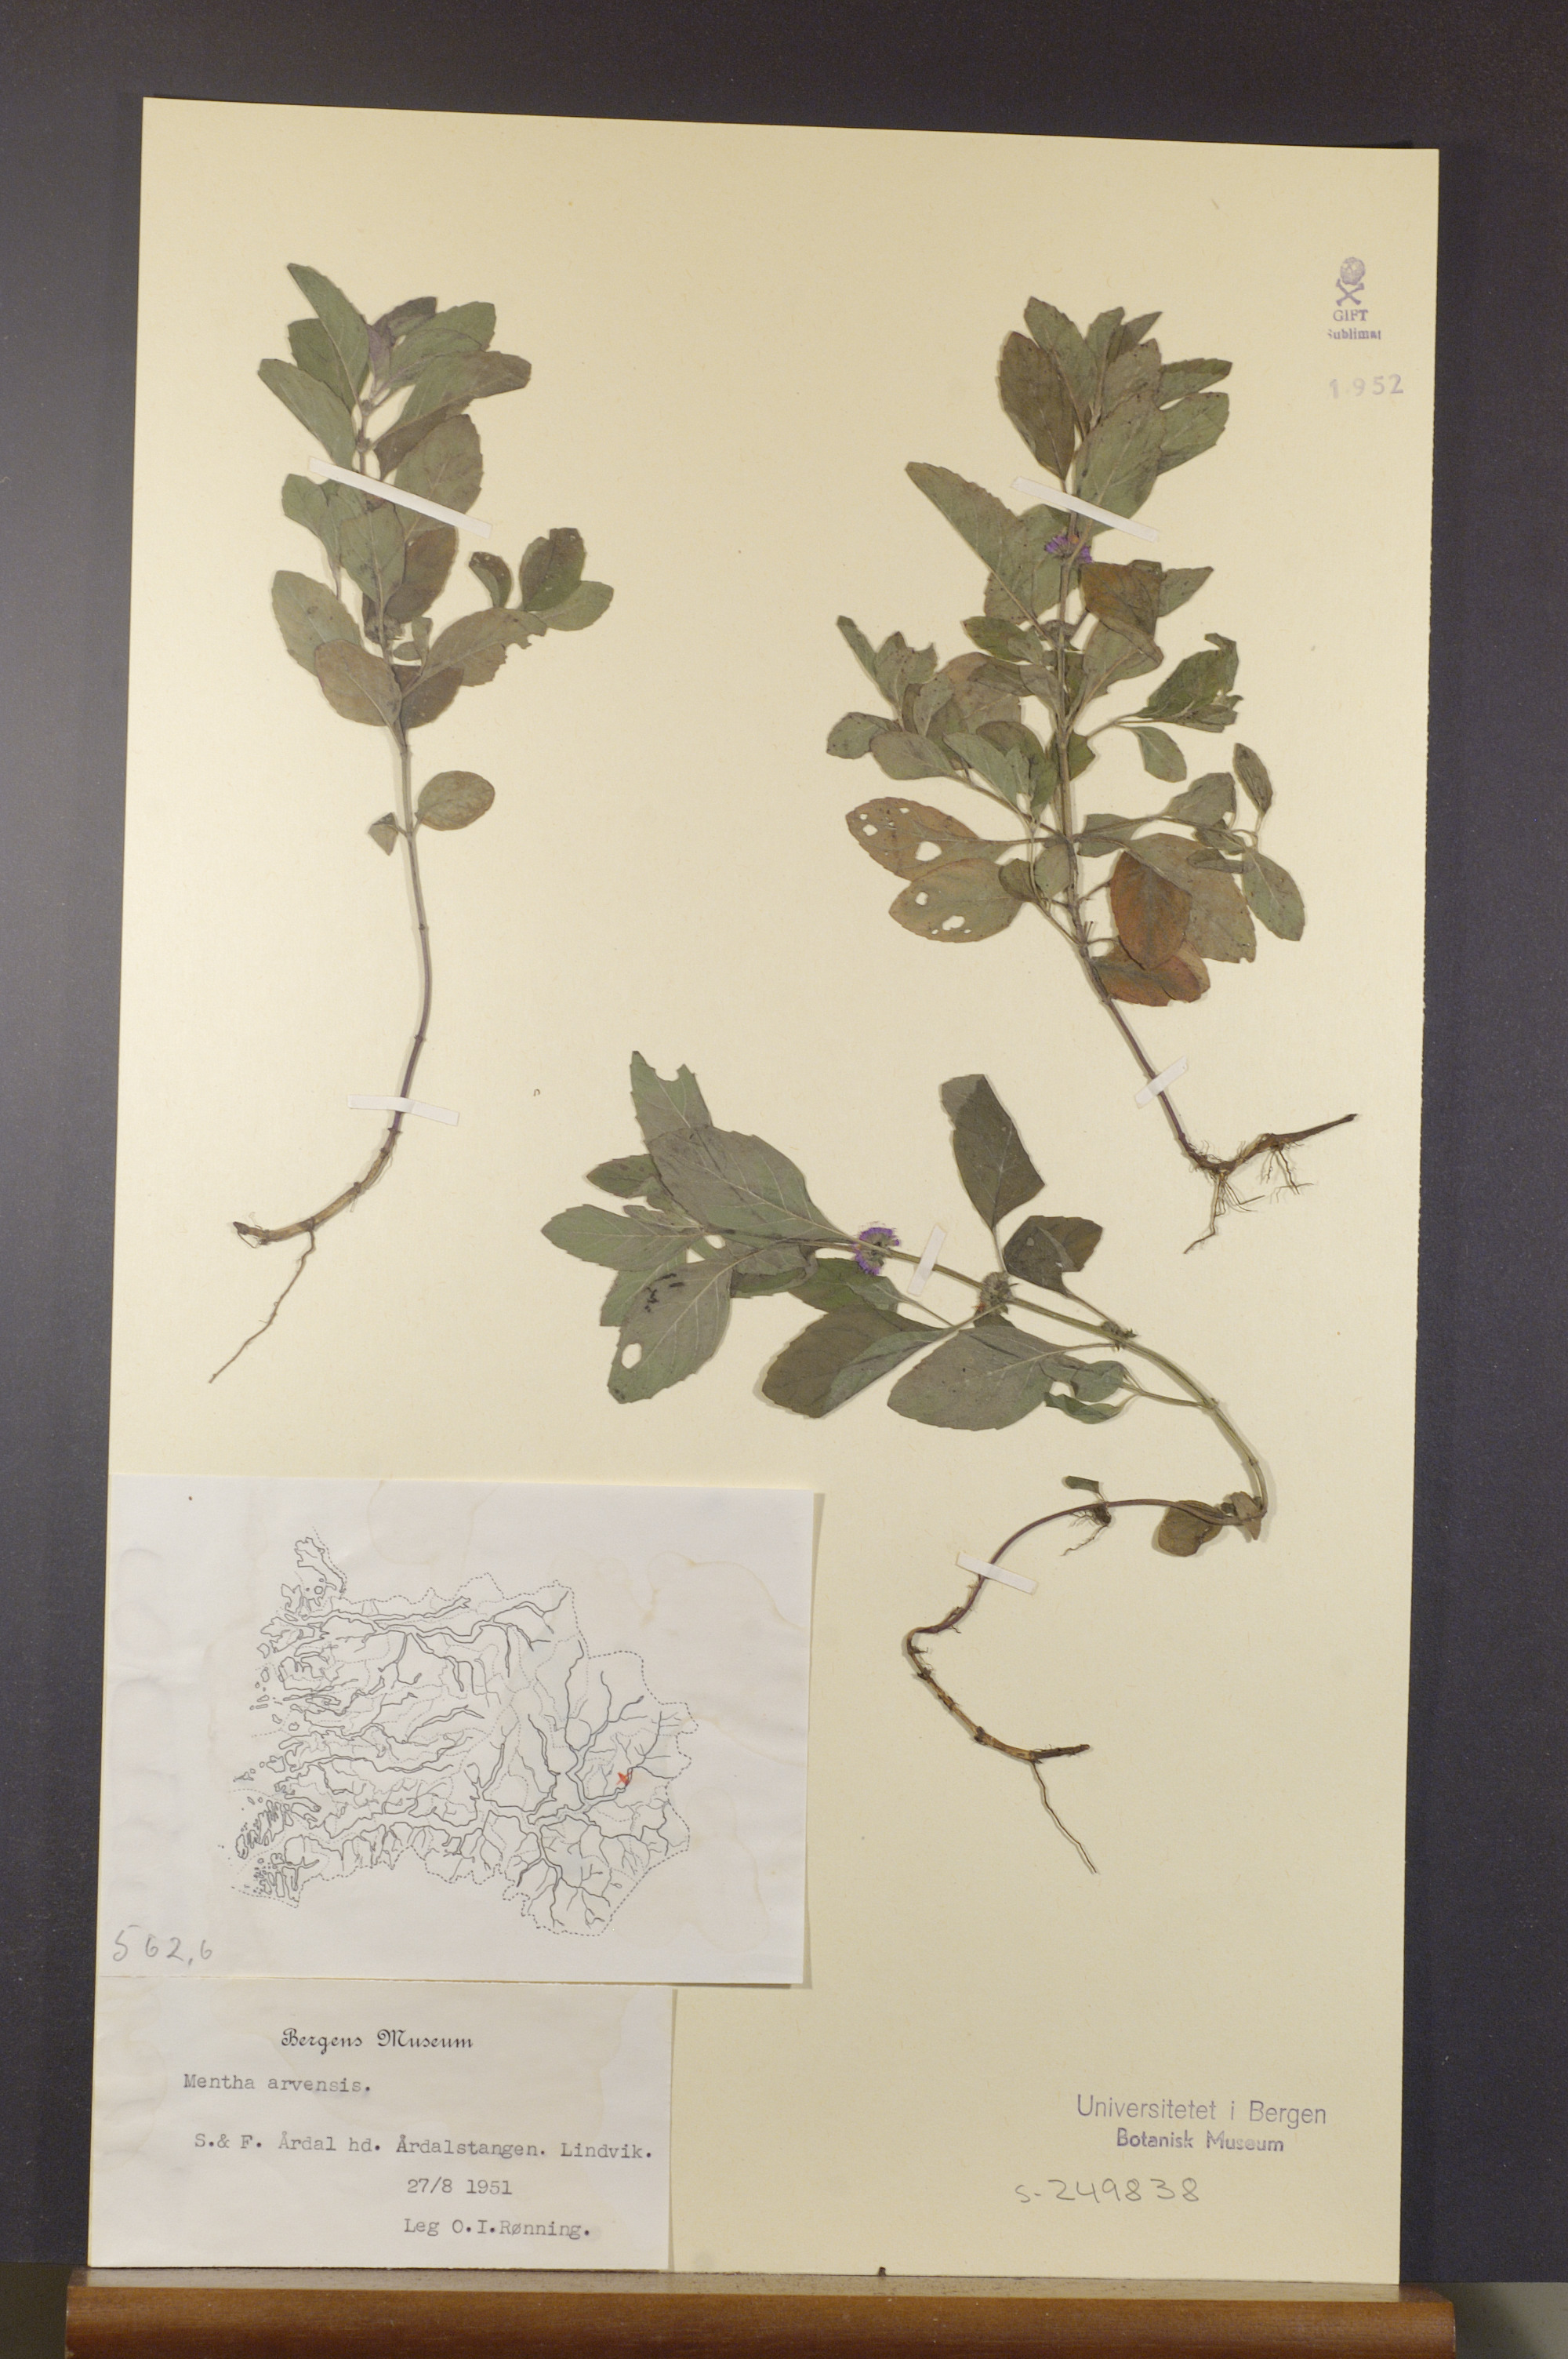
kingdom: Plantae
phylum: Tracheophyta
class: Magnoliopsida
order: Lamiales
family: Lamiaceae
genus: Mentha
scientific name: Mentha arvensis
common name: Corn mint
